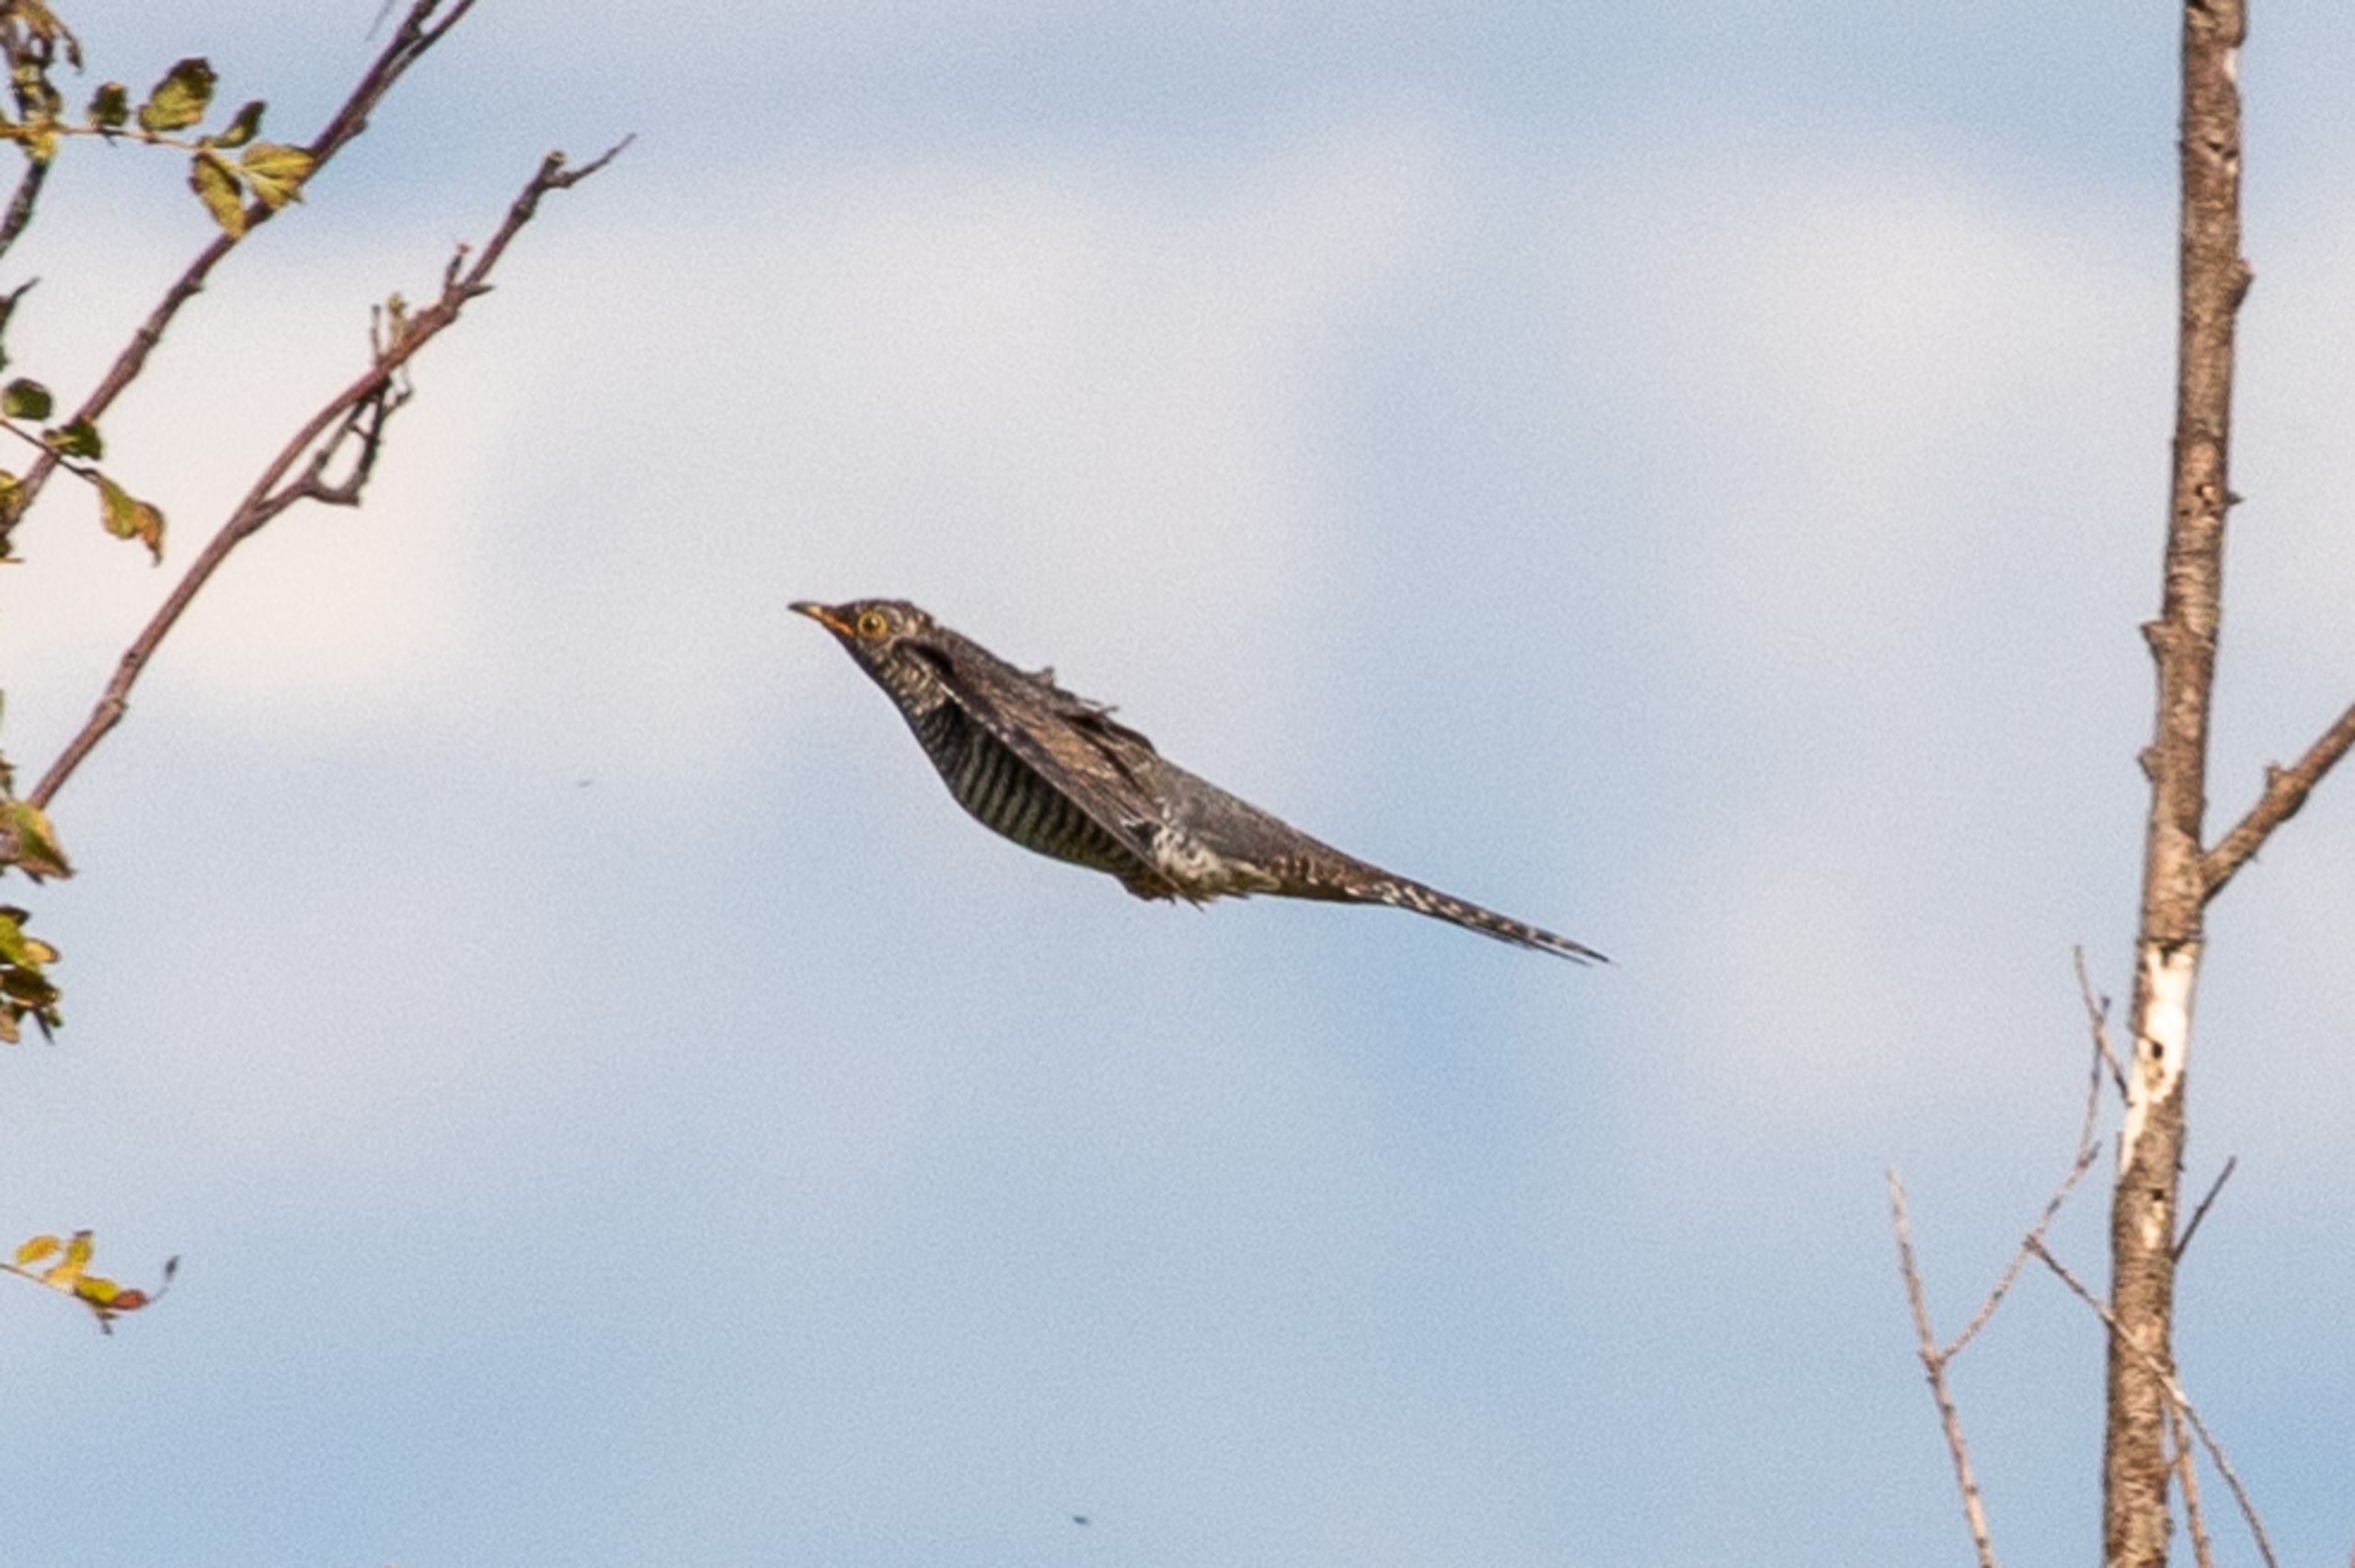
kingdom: Animalia
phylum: Chordata
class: Aves
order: Cuculiformes
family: Cuculidae
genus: Cuculus
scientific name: Cuculus canorus
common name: Gøg
